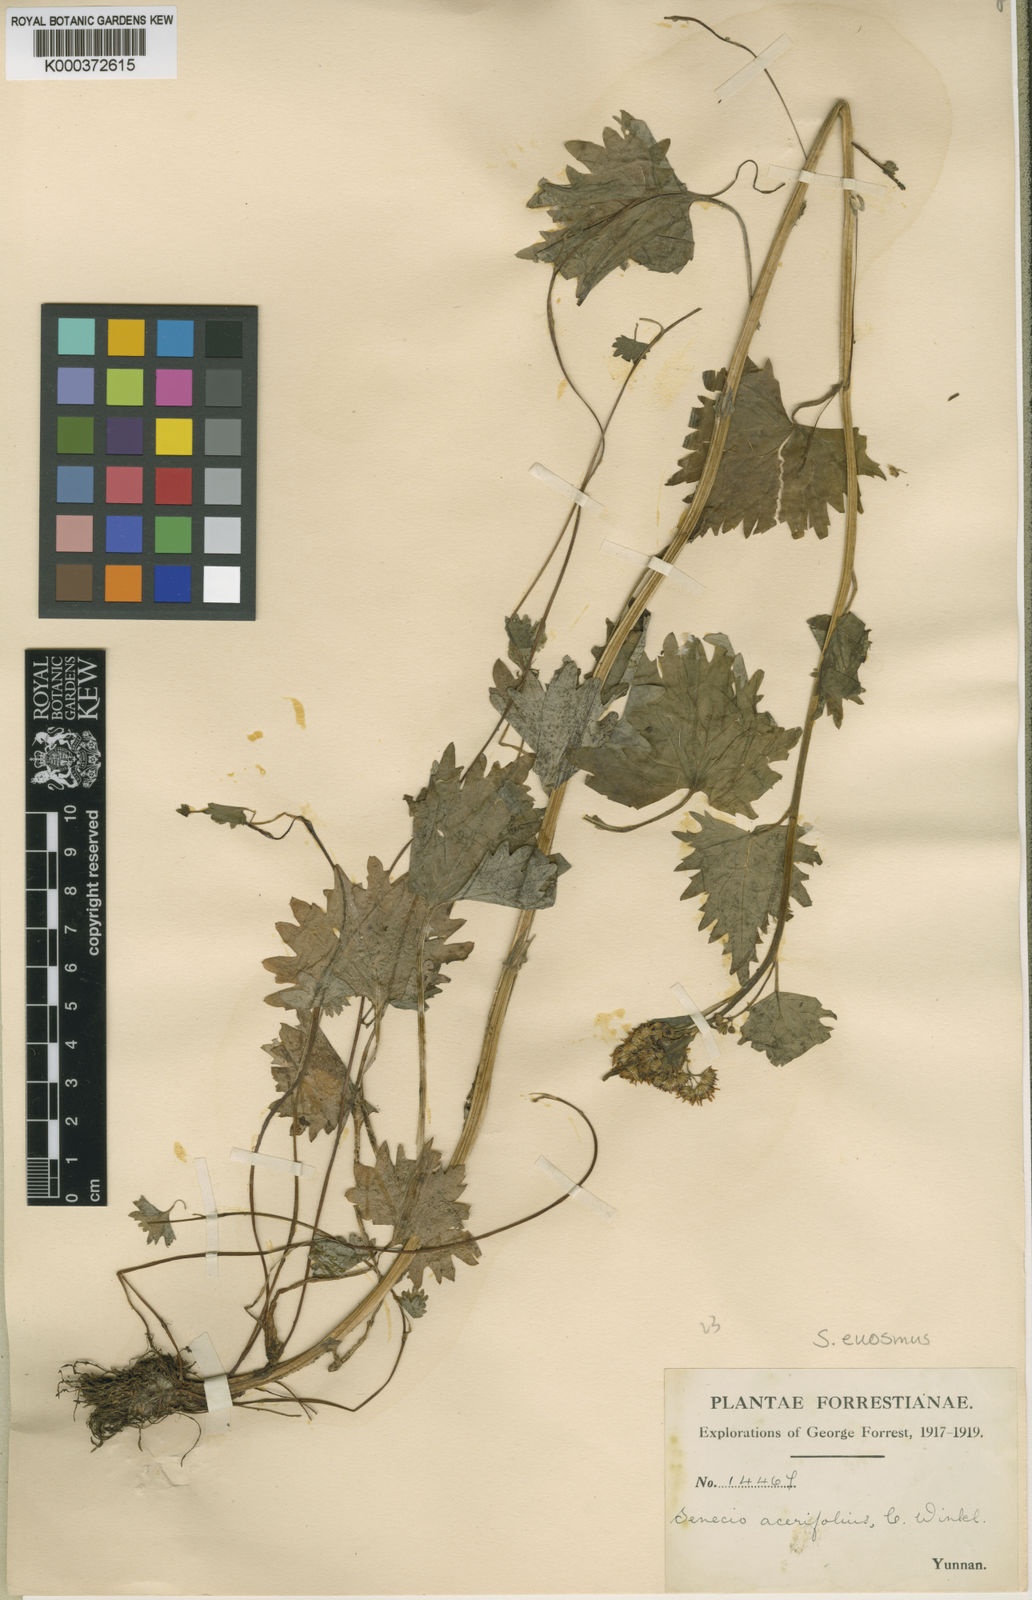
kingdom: Plantae
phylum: Tracheophyta
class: Magnoliopsida
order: Asterales
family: Asteraceae
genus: Sinosenecio
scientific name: Sinosenecio euosmus
